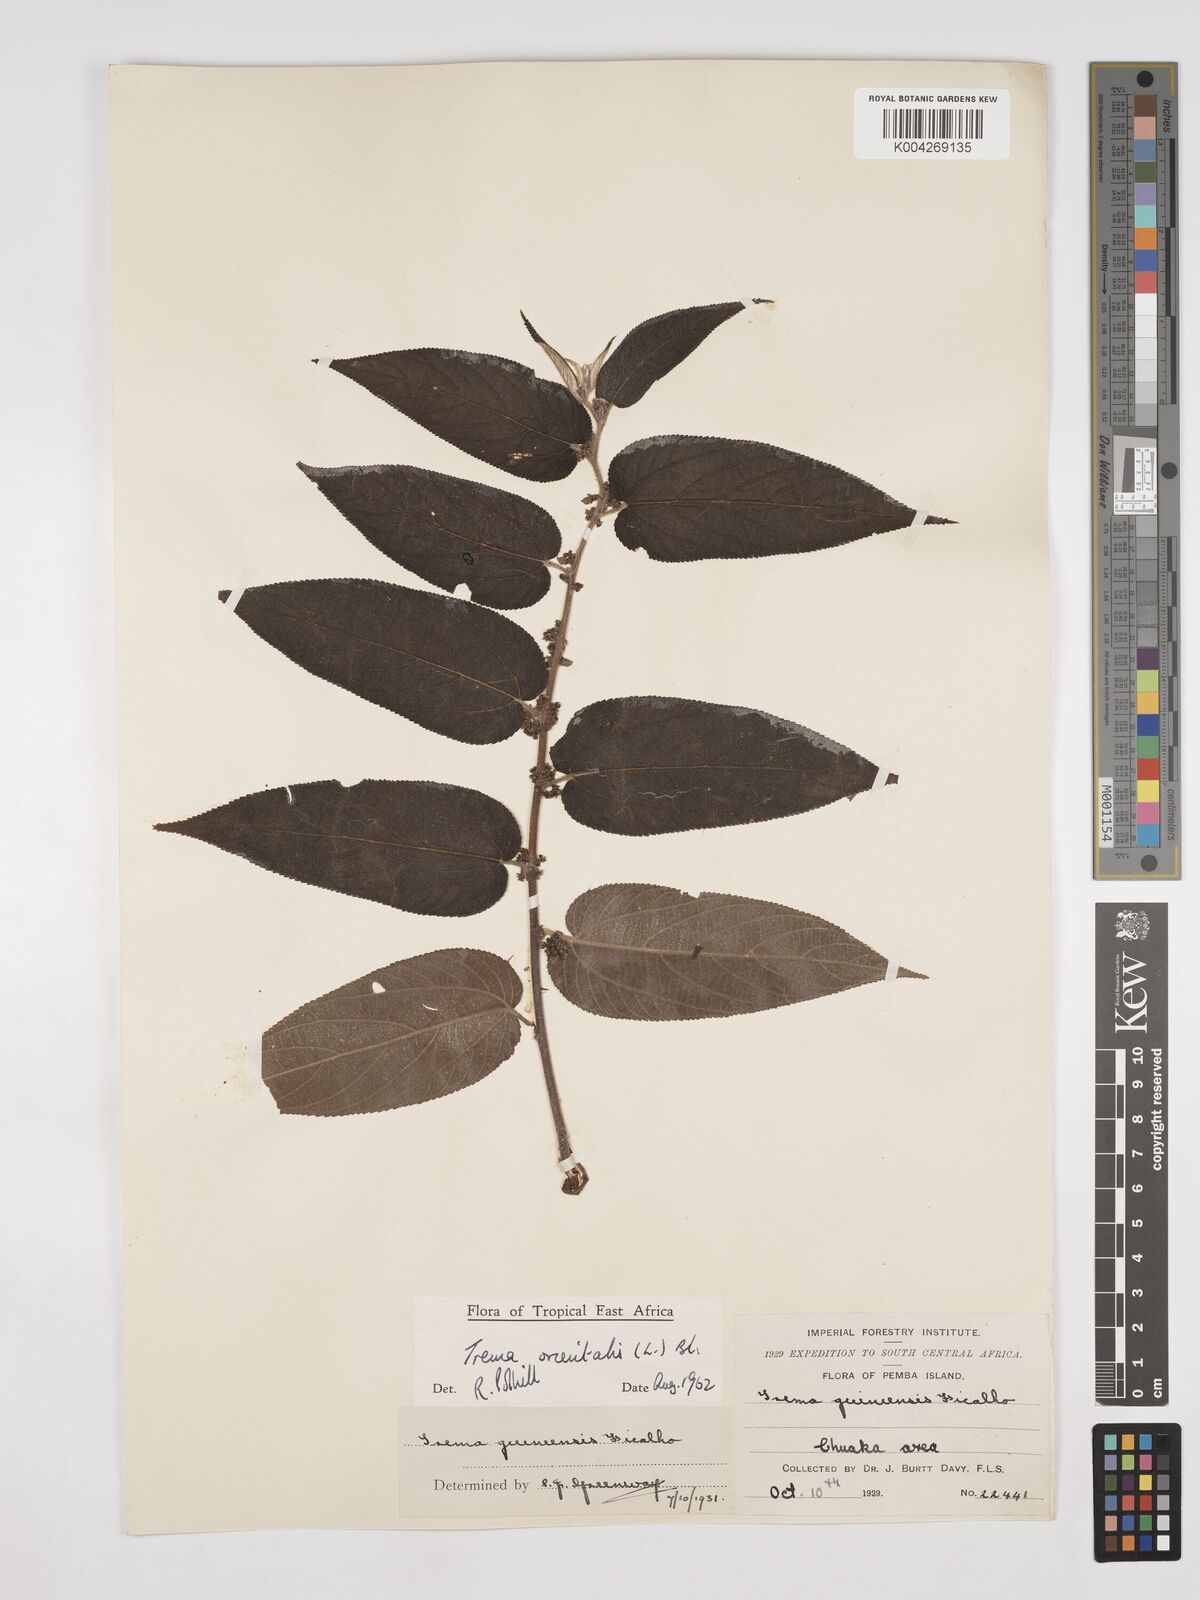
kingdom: Plantae
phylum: Tracheophyta
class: Magnoliopsida
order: Rosales
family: Cannabaceae
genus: Trema
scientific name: Trema orientale
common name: Indian charcoal tree
